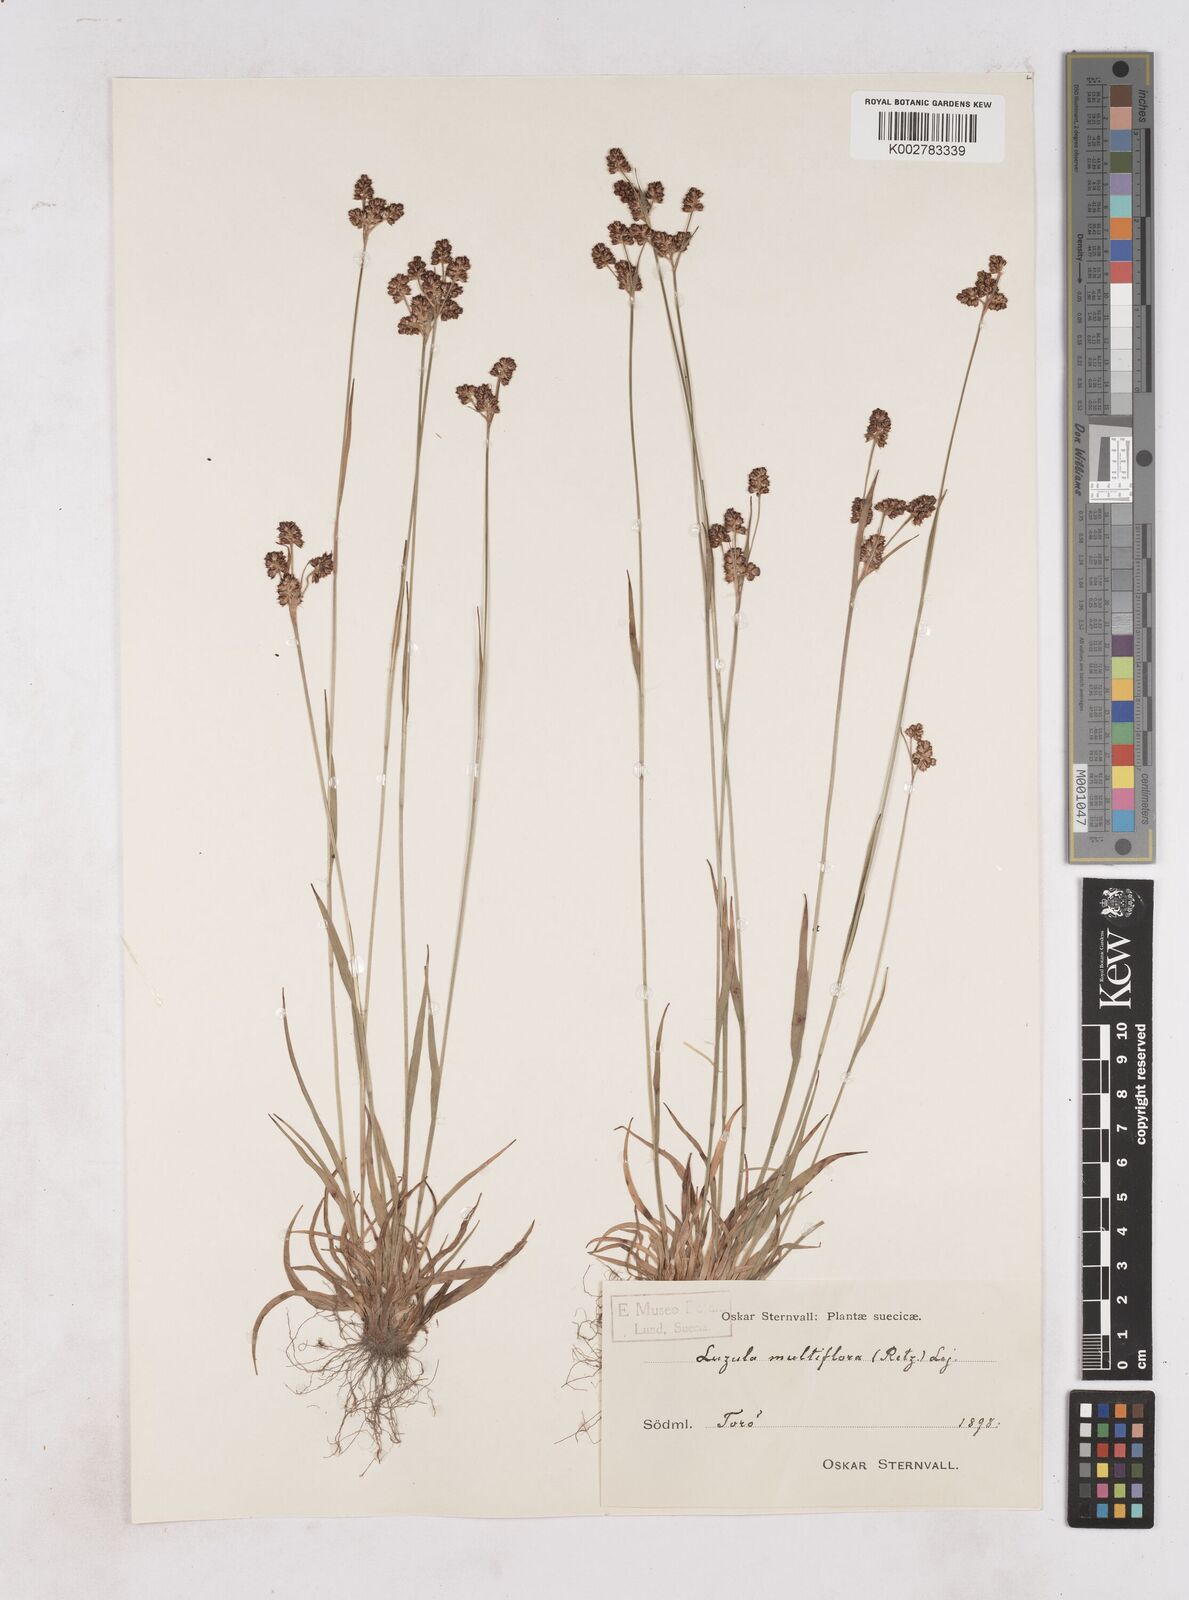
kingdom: Plantae
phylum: Tracheophyta
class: Liliopsida
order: Poales
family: Juncaceae
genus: Luzula
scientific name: Luzula multiflora
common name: Heath wood-rush
